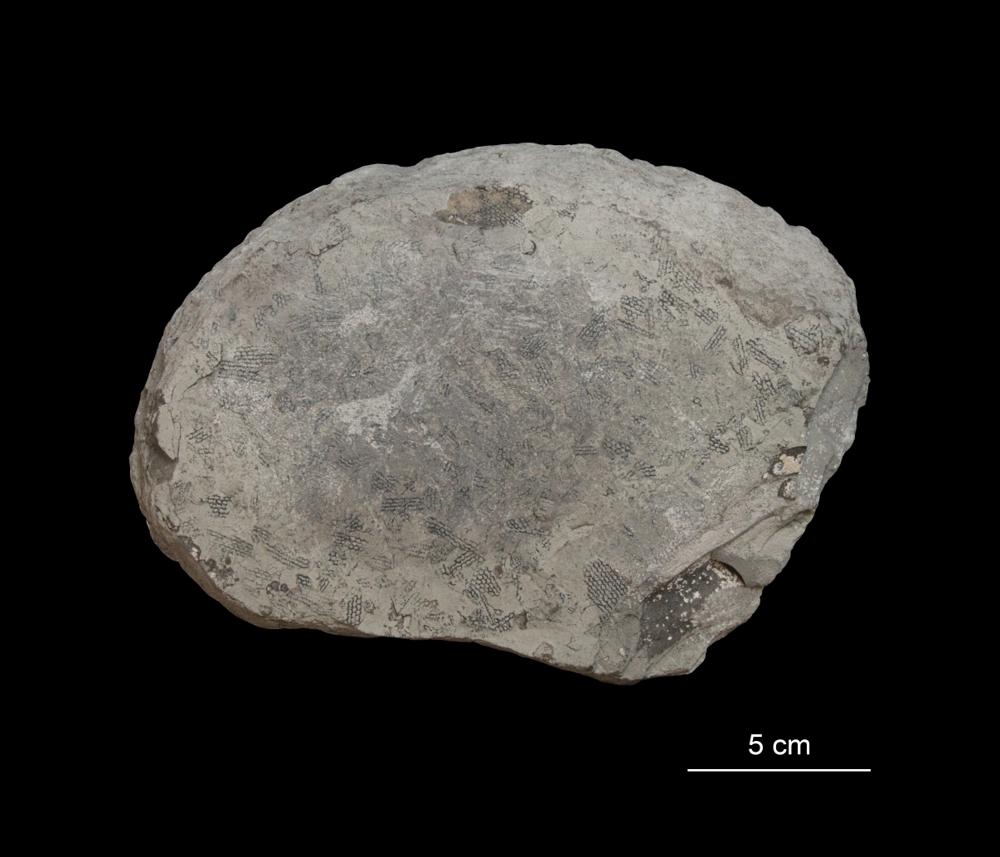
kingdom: Animalia
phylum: Hemichordata
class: Pterobranchia
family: Anisograptidae
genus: Rhabdinopora
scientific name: Rhabdinopora
